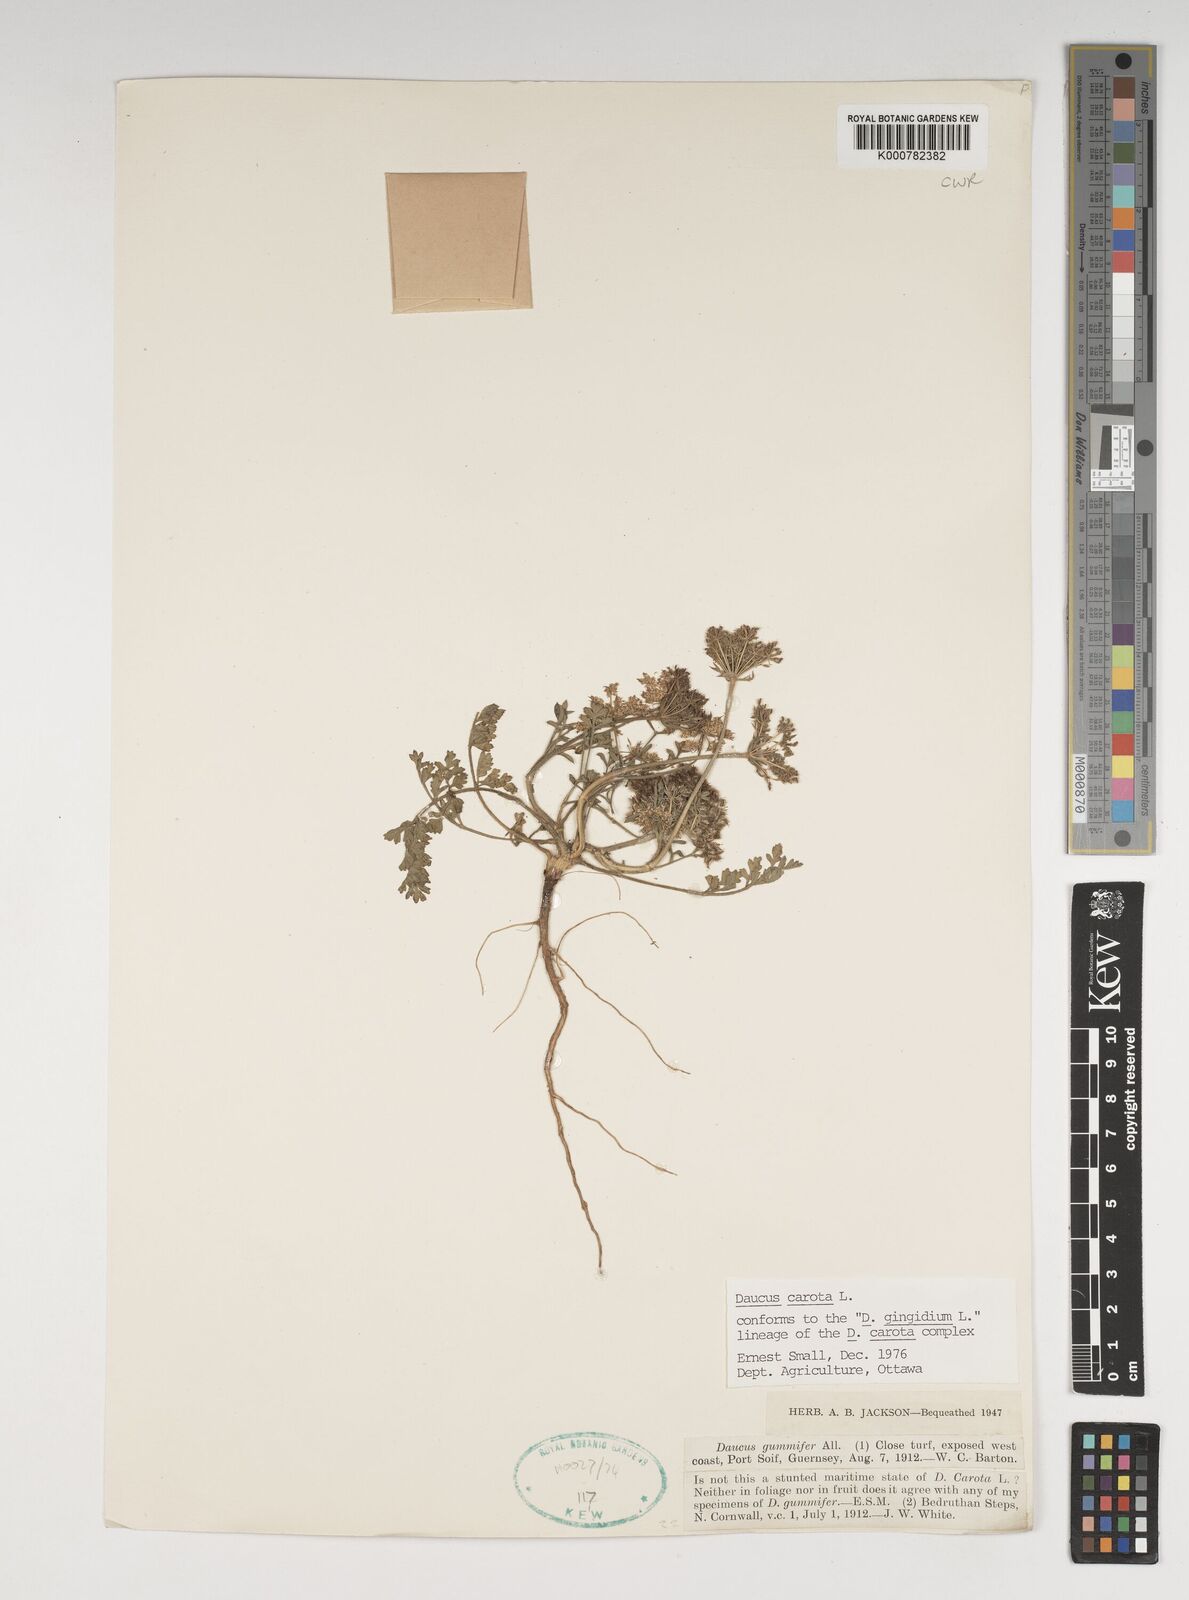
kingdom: Plantae
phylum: Tracheophyta
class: Magnoliopsida
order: Apiales
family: Apiaceae
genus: Daucus
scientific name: Daucus carota
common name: Wild carrot
